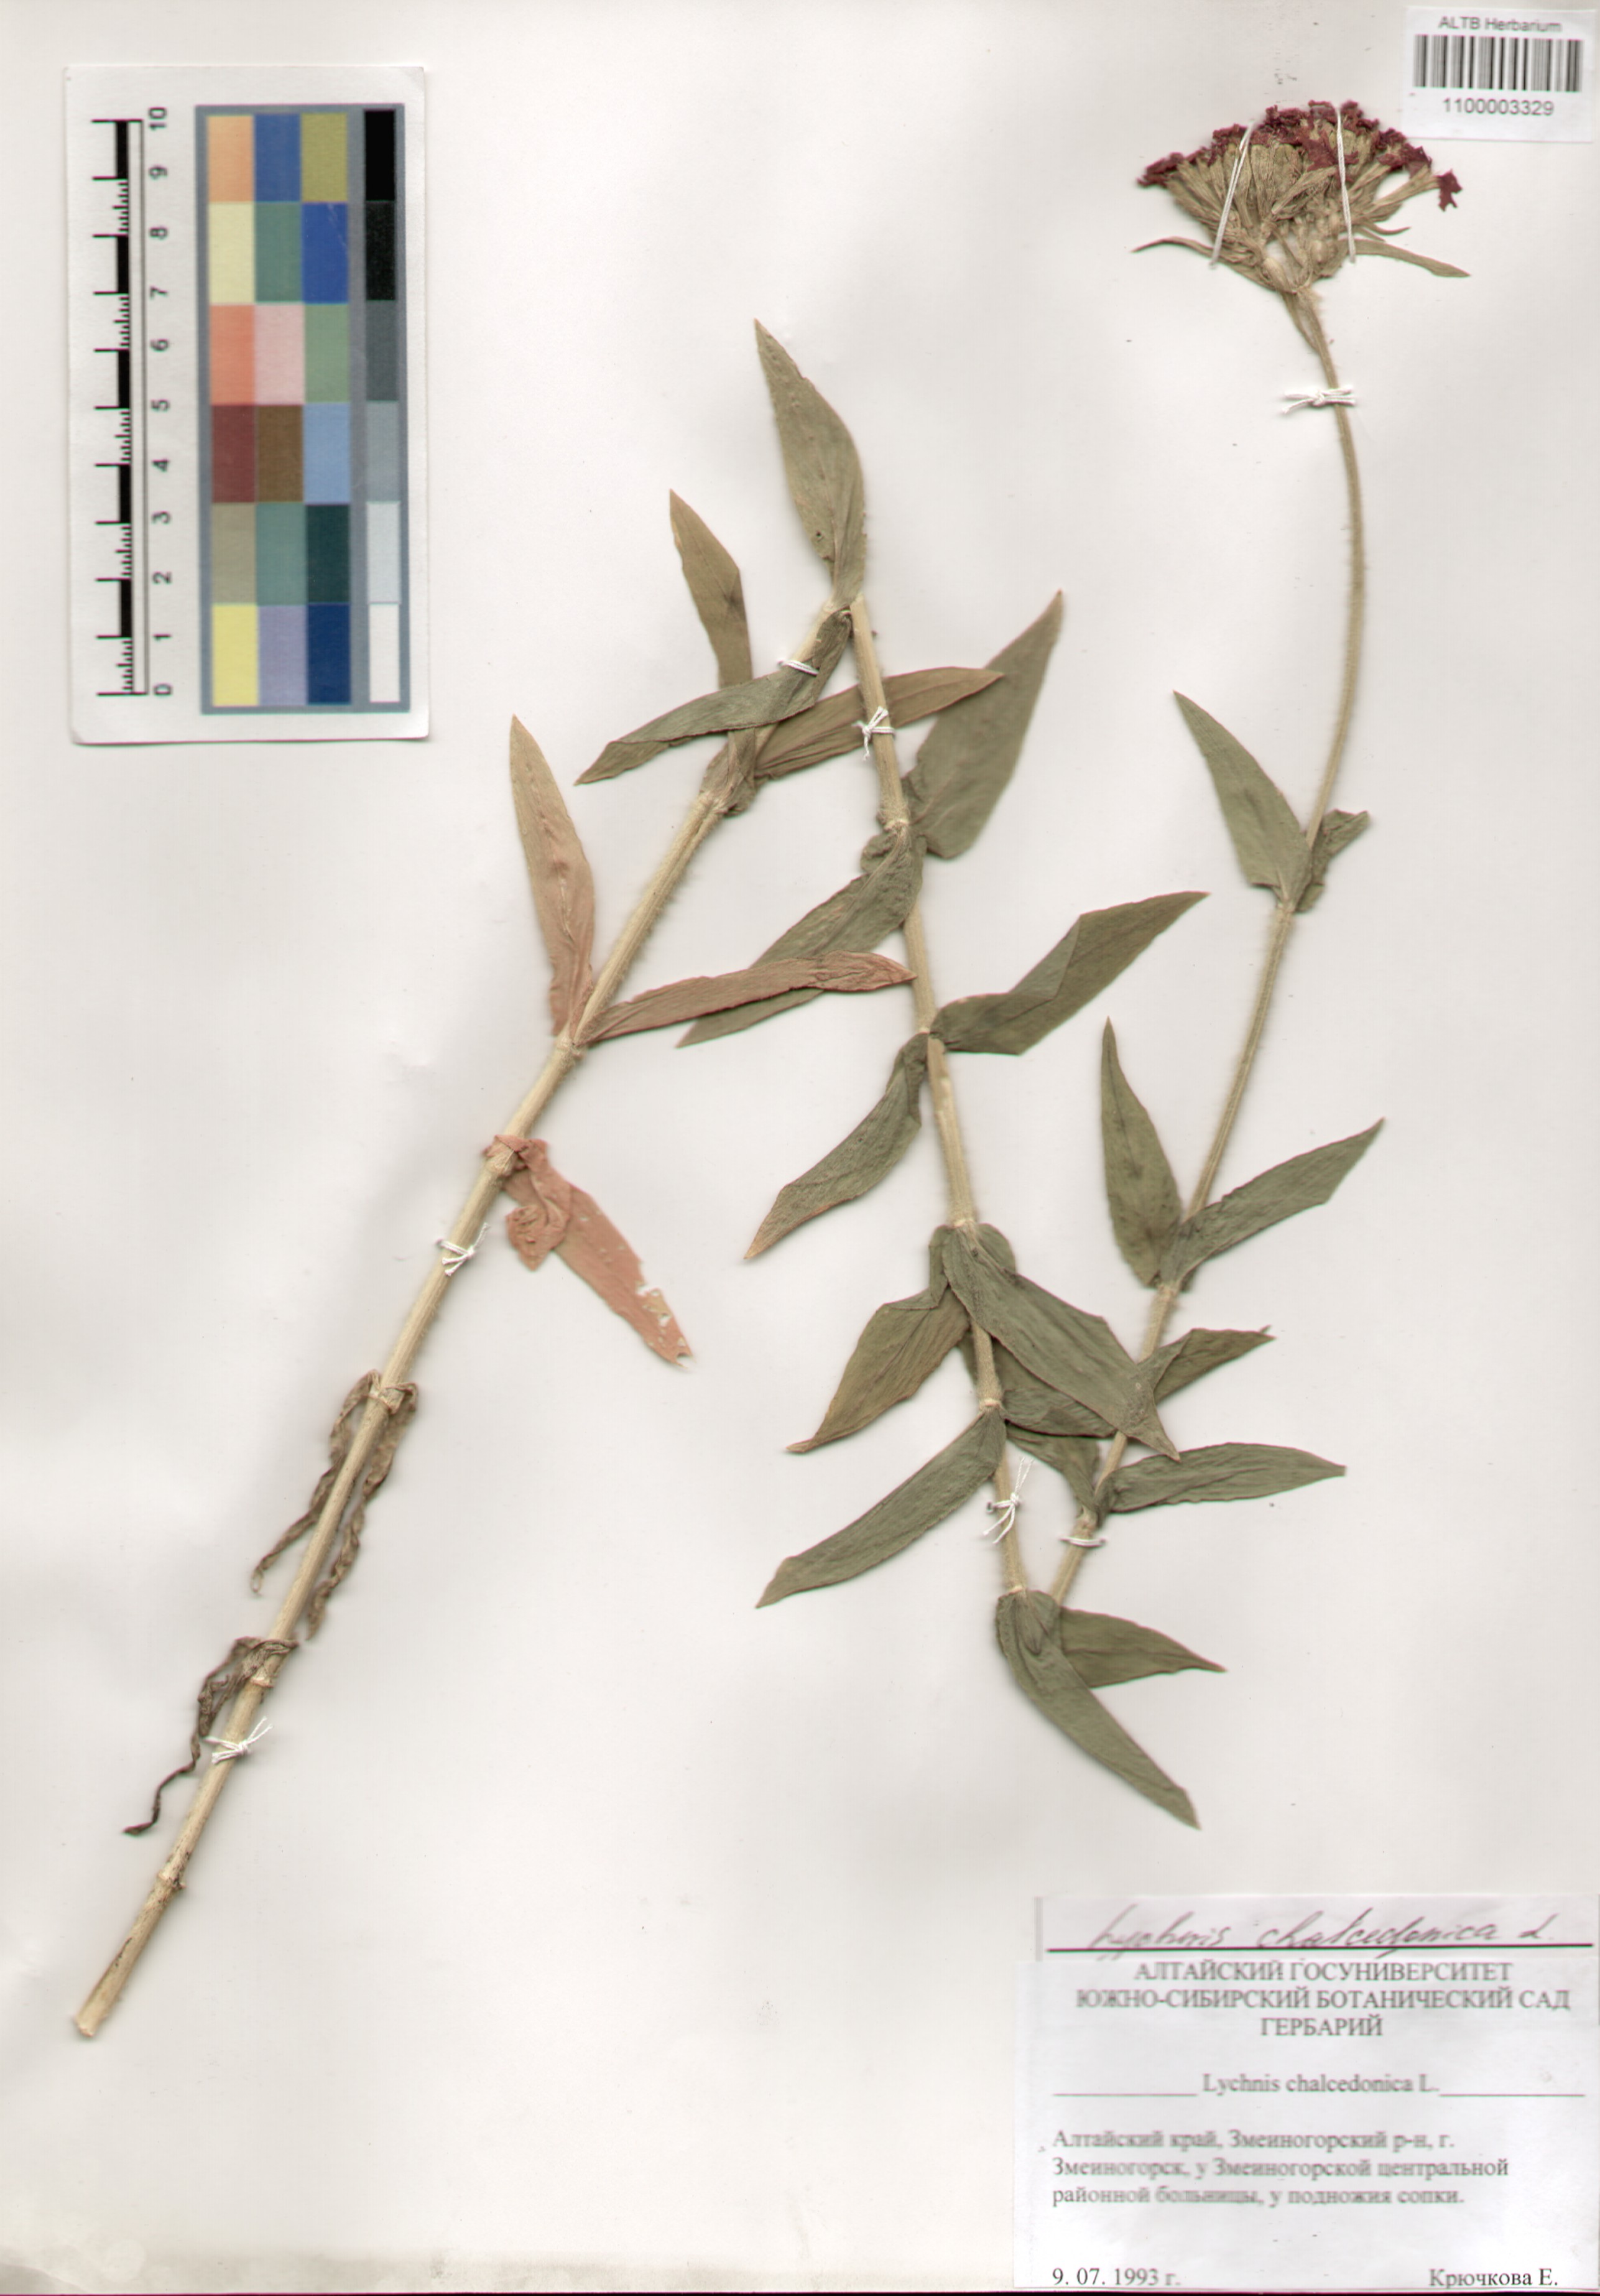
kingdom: Plantae
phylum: Tracheophyta
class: Magnoliopsida
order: Caryophyllales
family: Caryophyllaceae
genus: Silene
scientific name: Silene chalcedonica
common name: Maltese-cross
